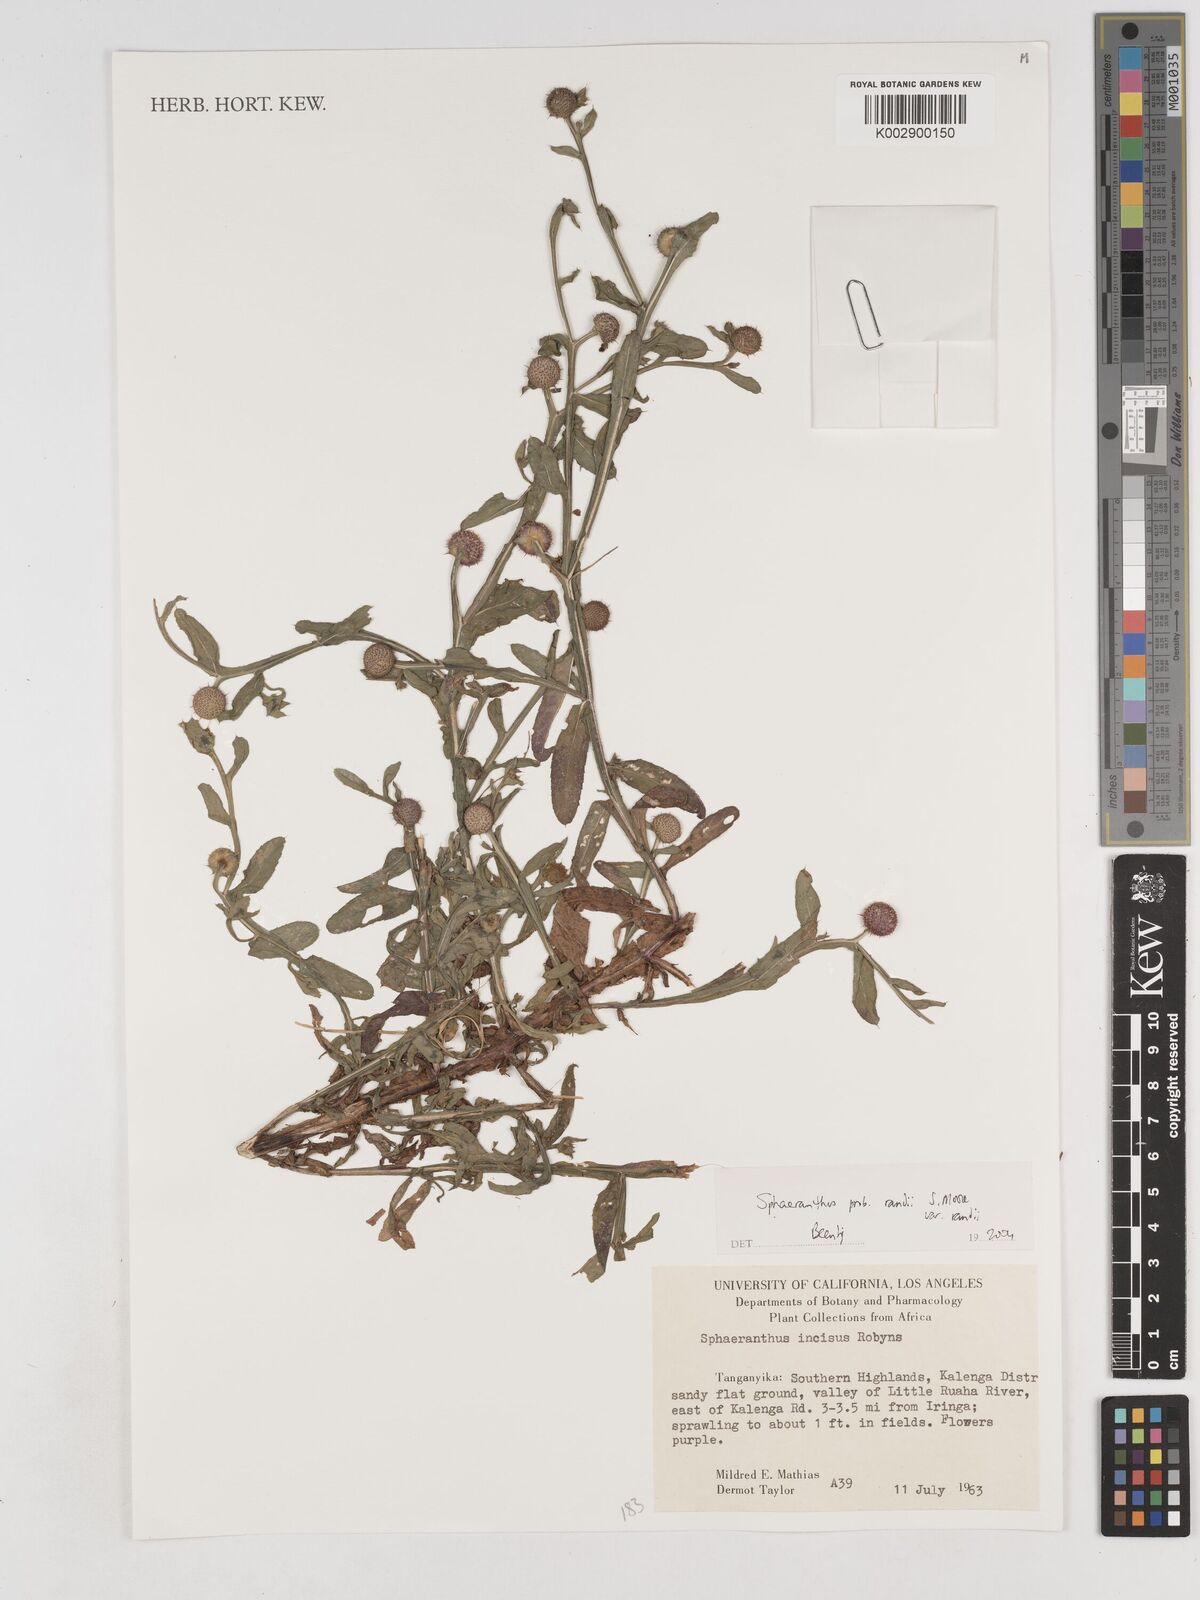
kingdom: Plantae
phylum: Tracheophyta
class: Magnoliopsida
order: Asterales
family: Asteraceae
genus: Sphaeranthus
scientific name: Sphaeranthus randii
